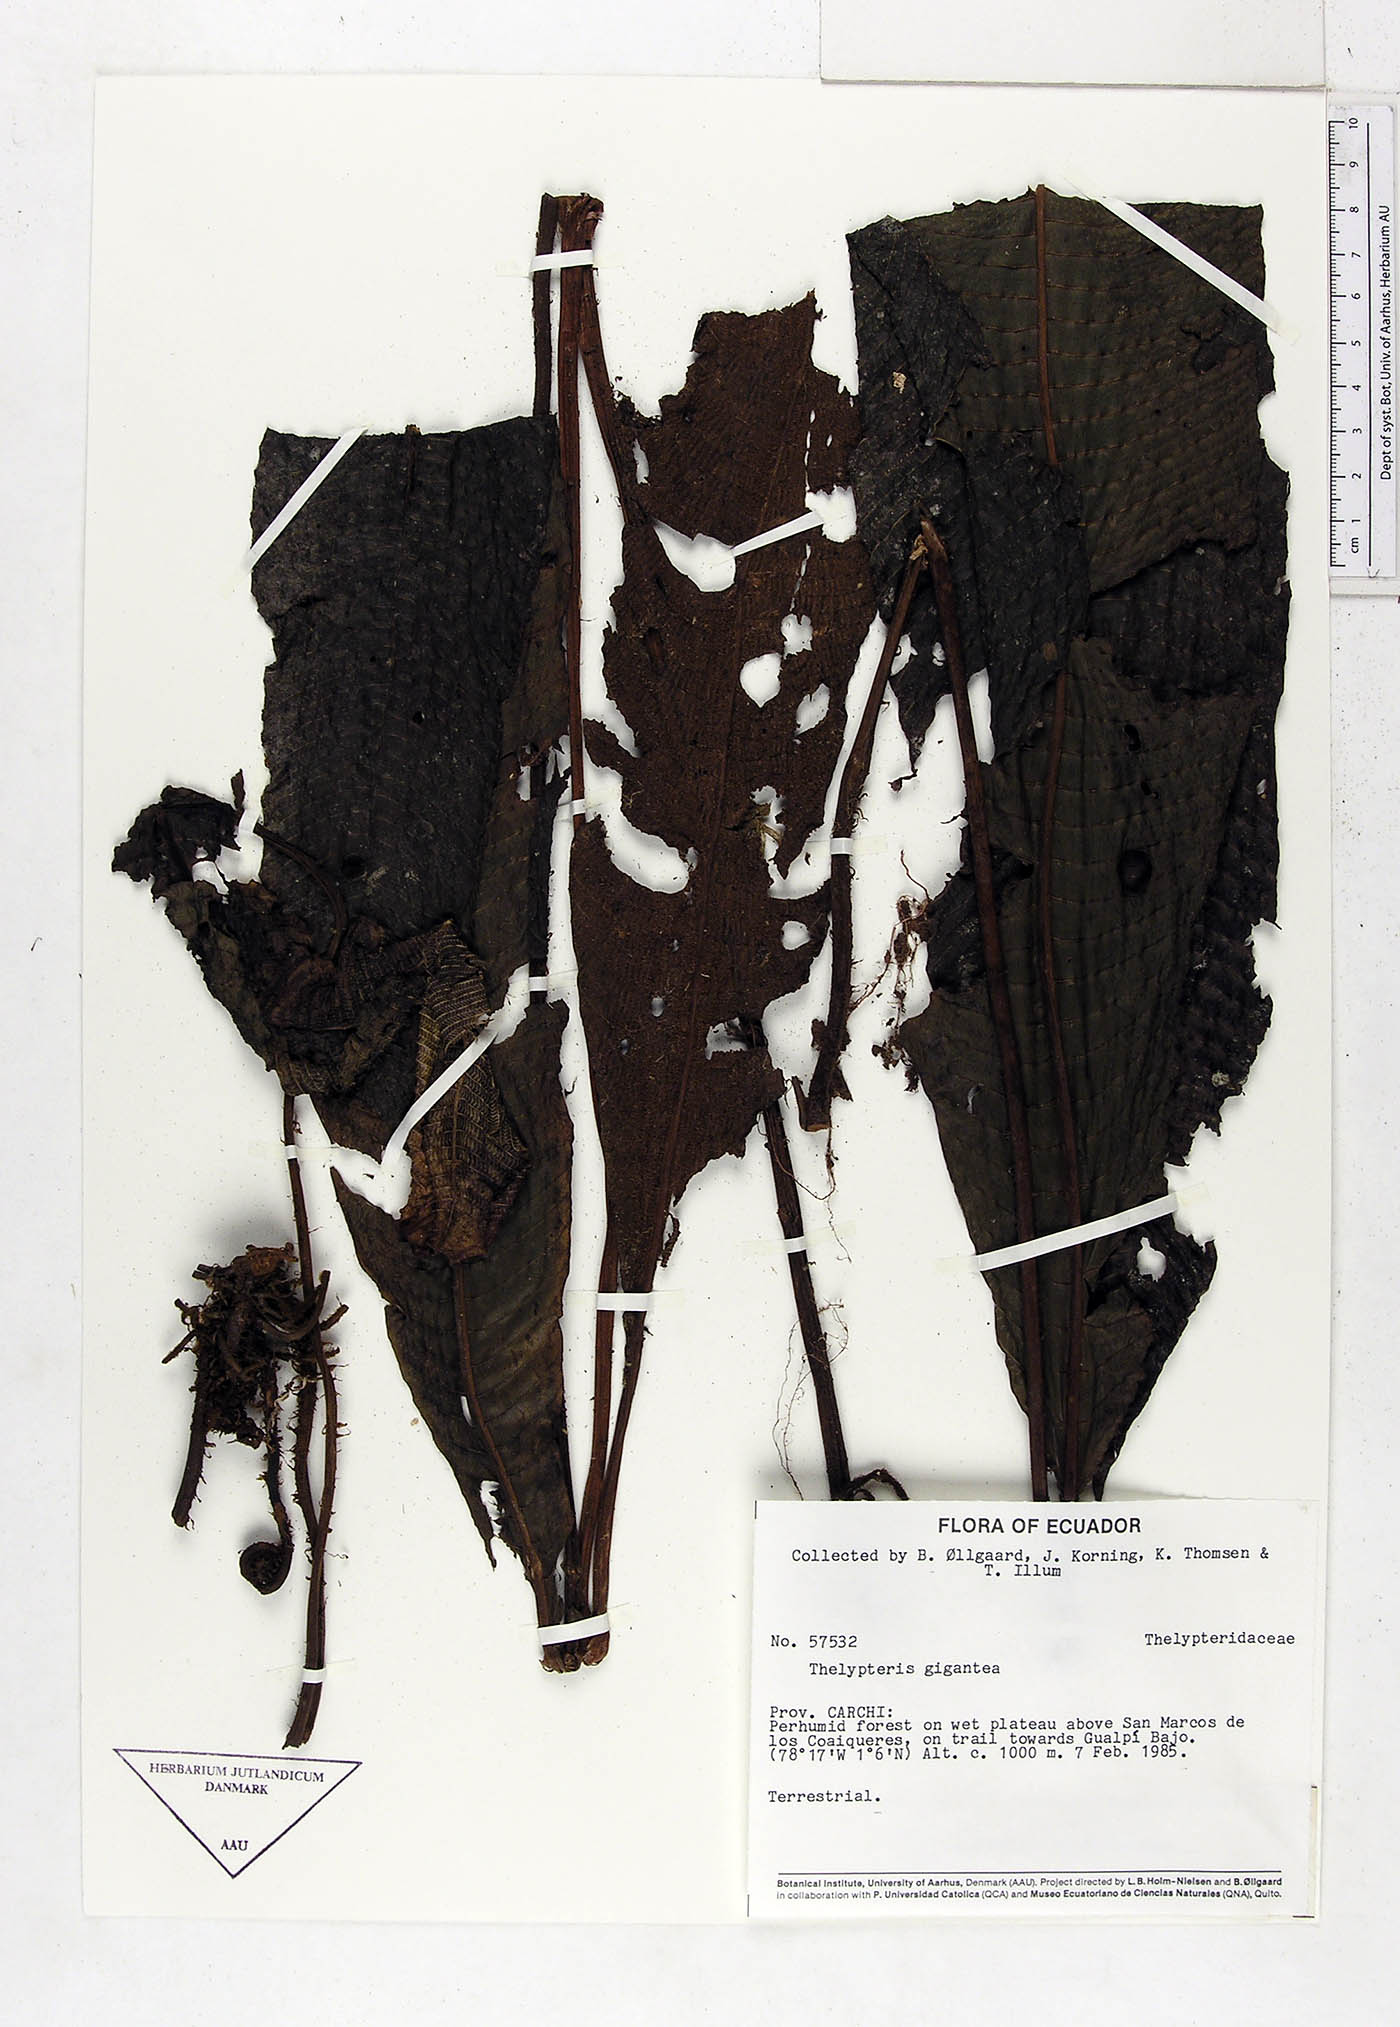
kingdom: Plantae
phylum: Tracheophyta
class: Polypodiopsida
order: Polypodiales
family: Thelypteridaceae
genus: Meniscium
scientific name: Meniscium giganteum
